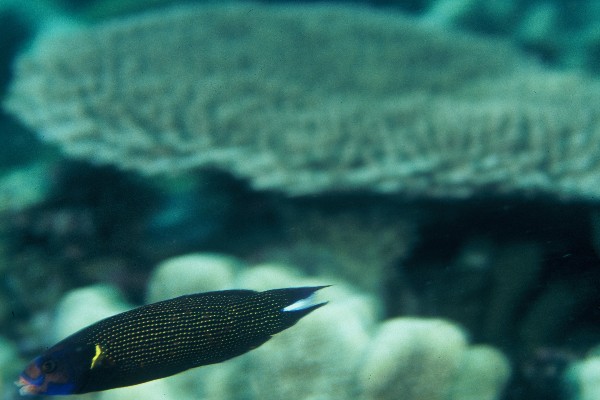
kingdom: Animalia
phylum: Chordata
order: Perciformes
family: Labridae
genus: Labropsis
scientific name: Labropsis xanthonota
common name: Blacklobe wrasse
